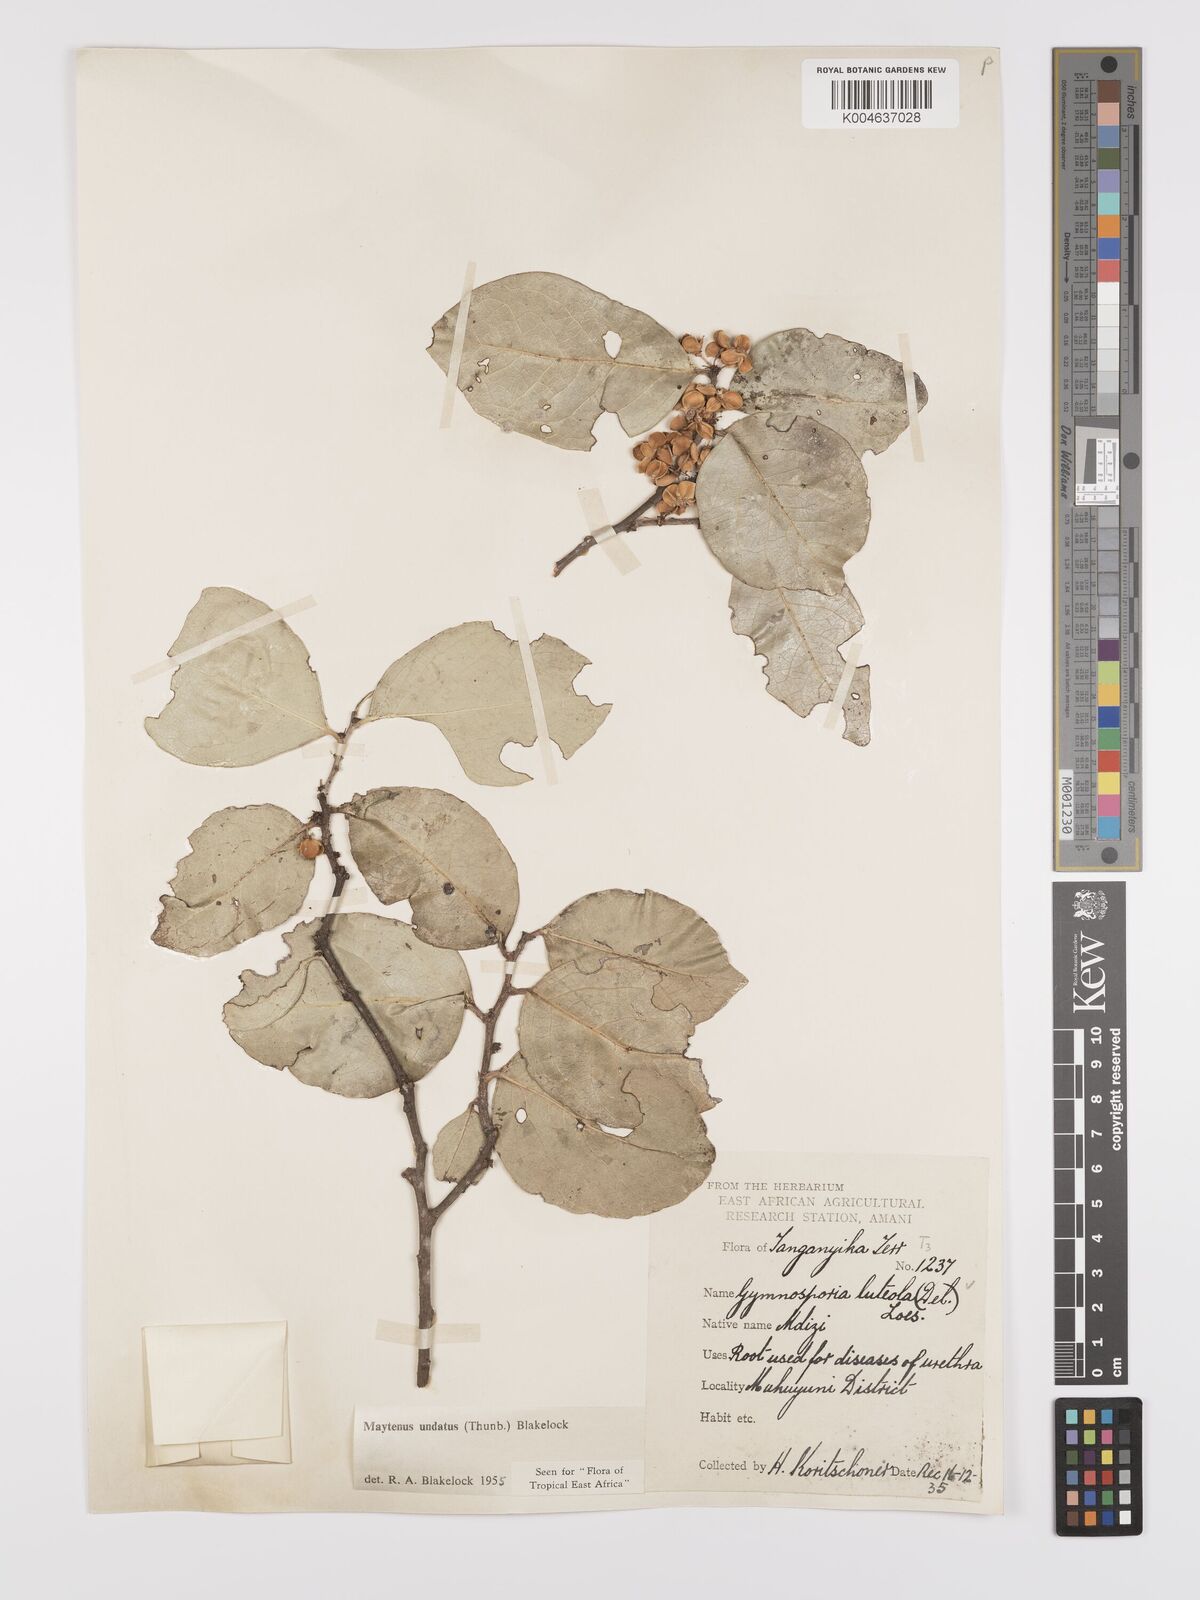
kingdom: Plantae
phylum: Tracheophyta
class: Magnoliopsida
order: Celastrales
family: Celastraceae
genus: Gymnosporia
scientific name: Gymnosporia undata
